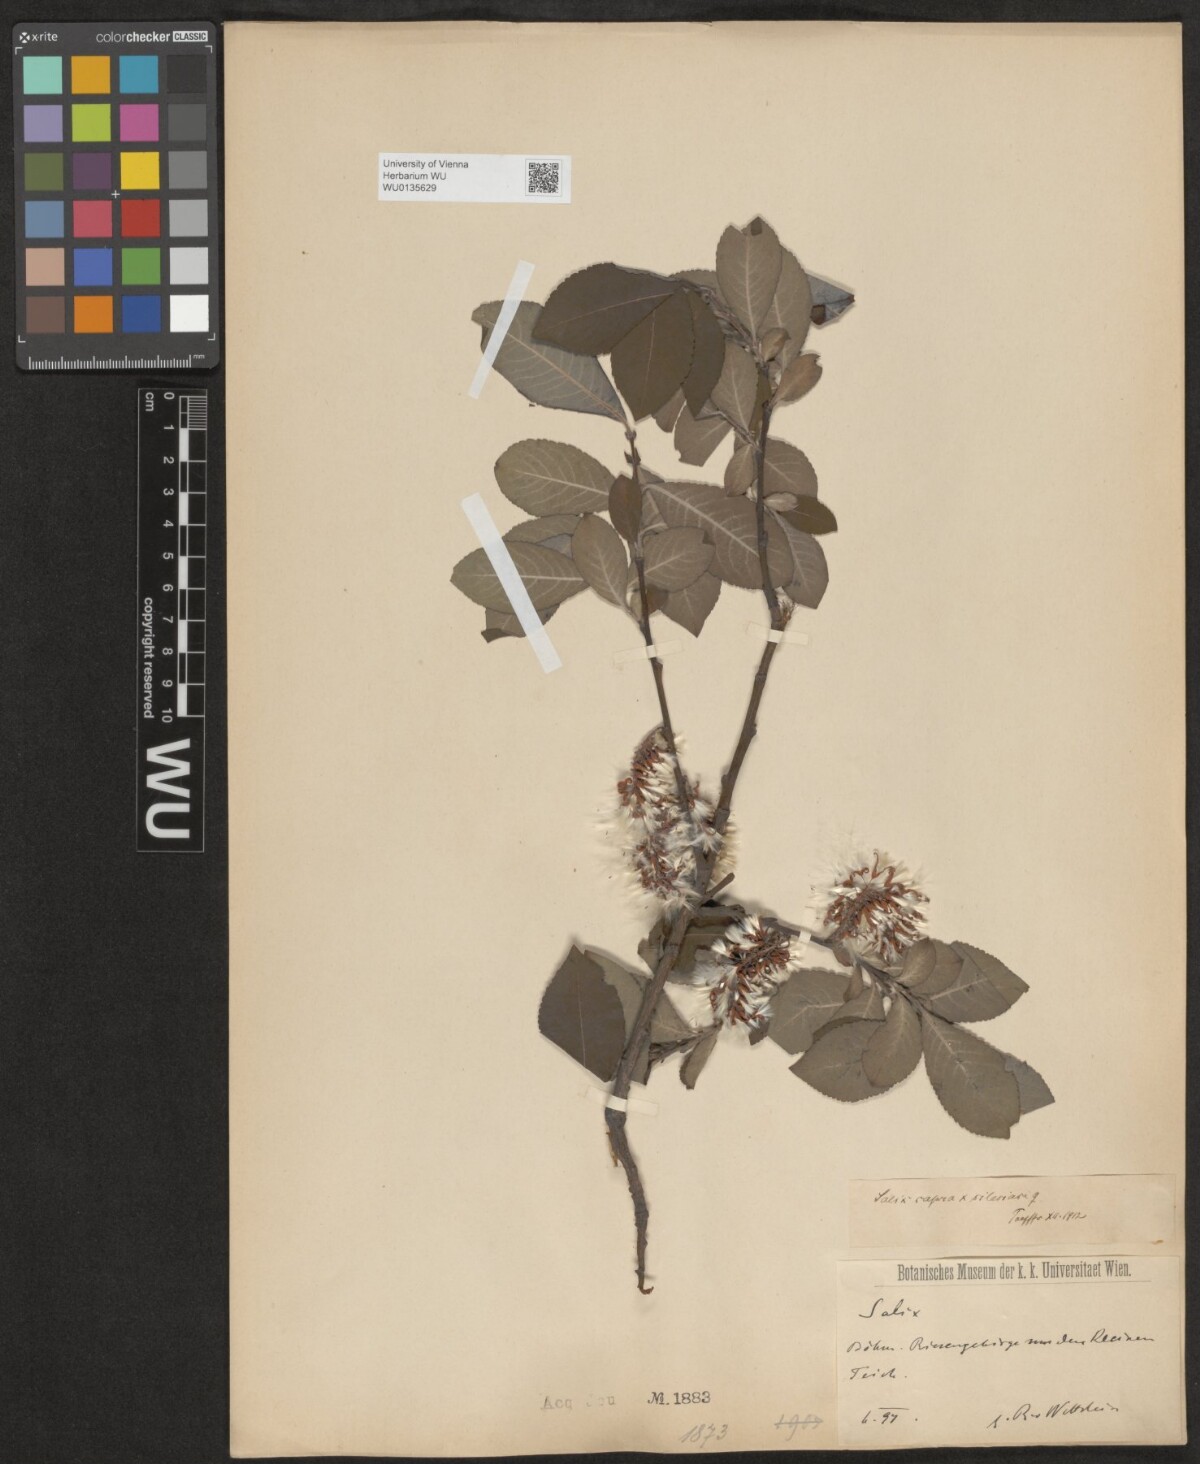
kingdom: Plantae
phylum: Tracheophyta
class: Magnoliopsida
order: Malpighiales
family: Salicaceae
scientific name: Salicaceae
